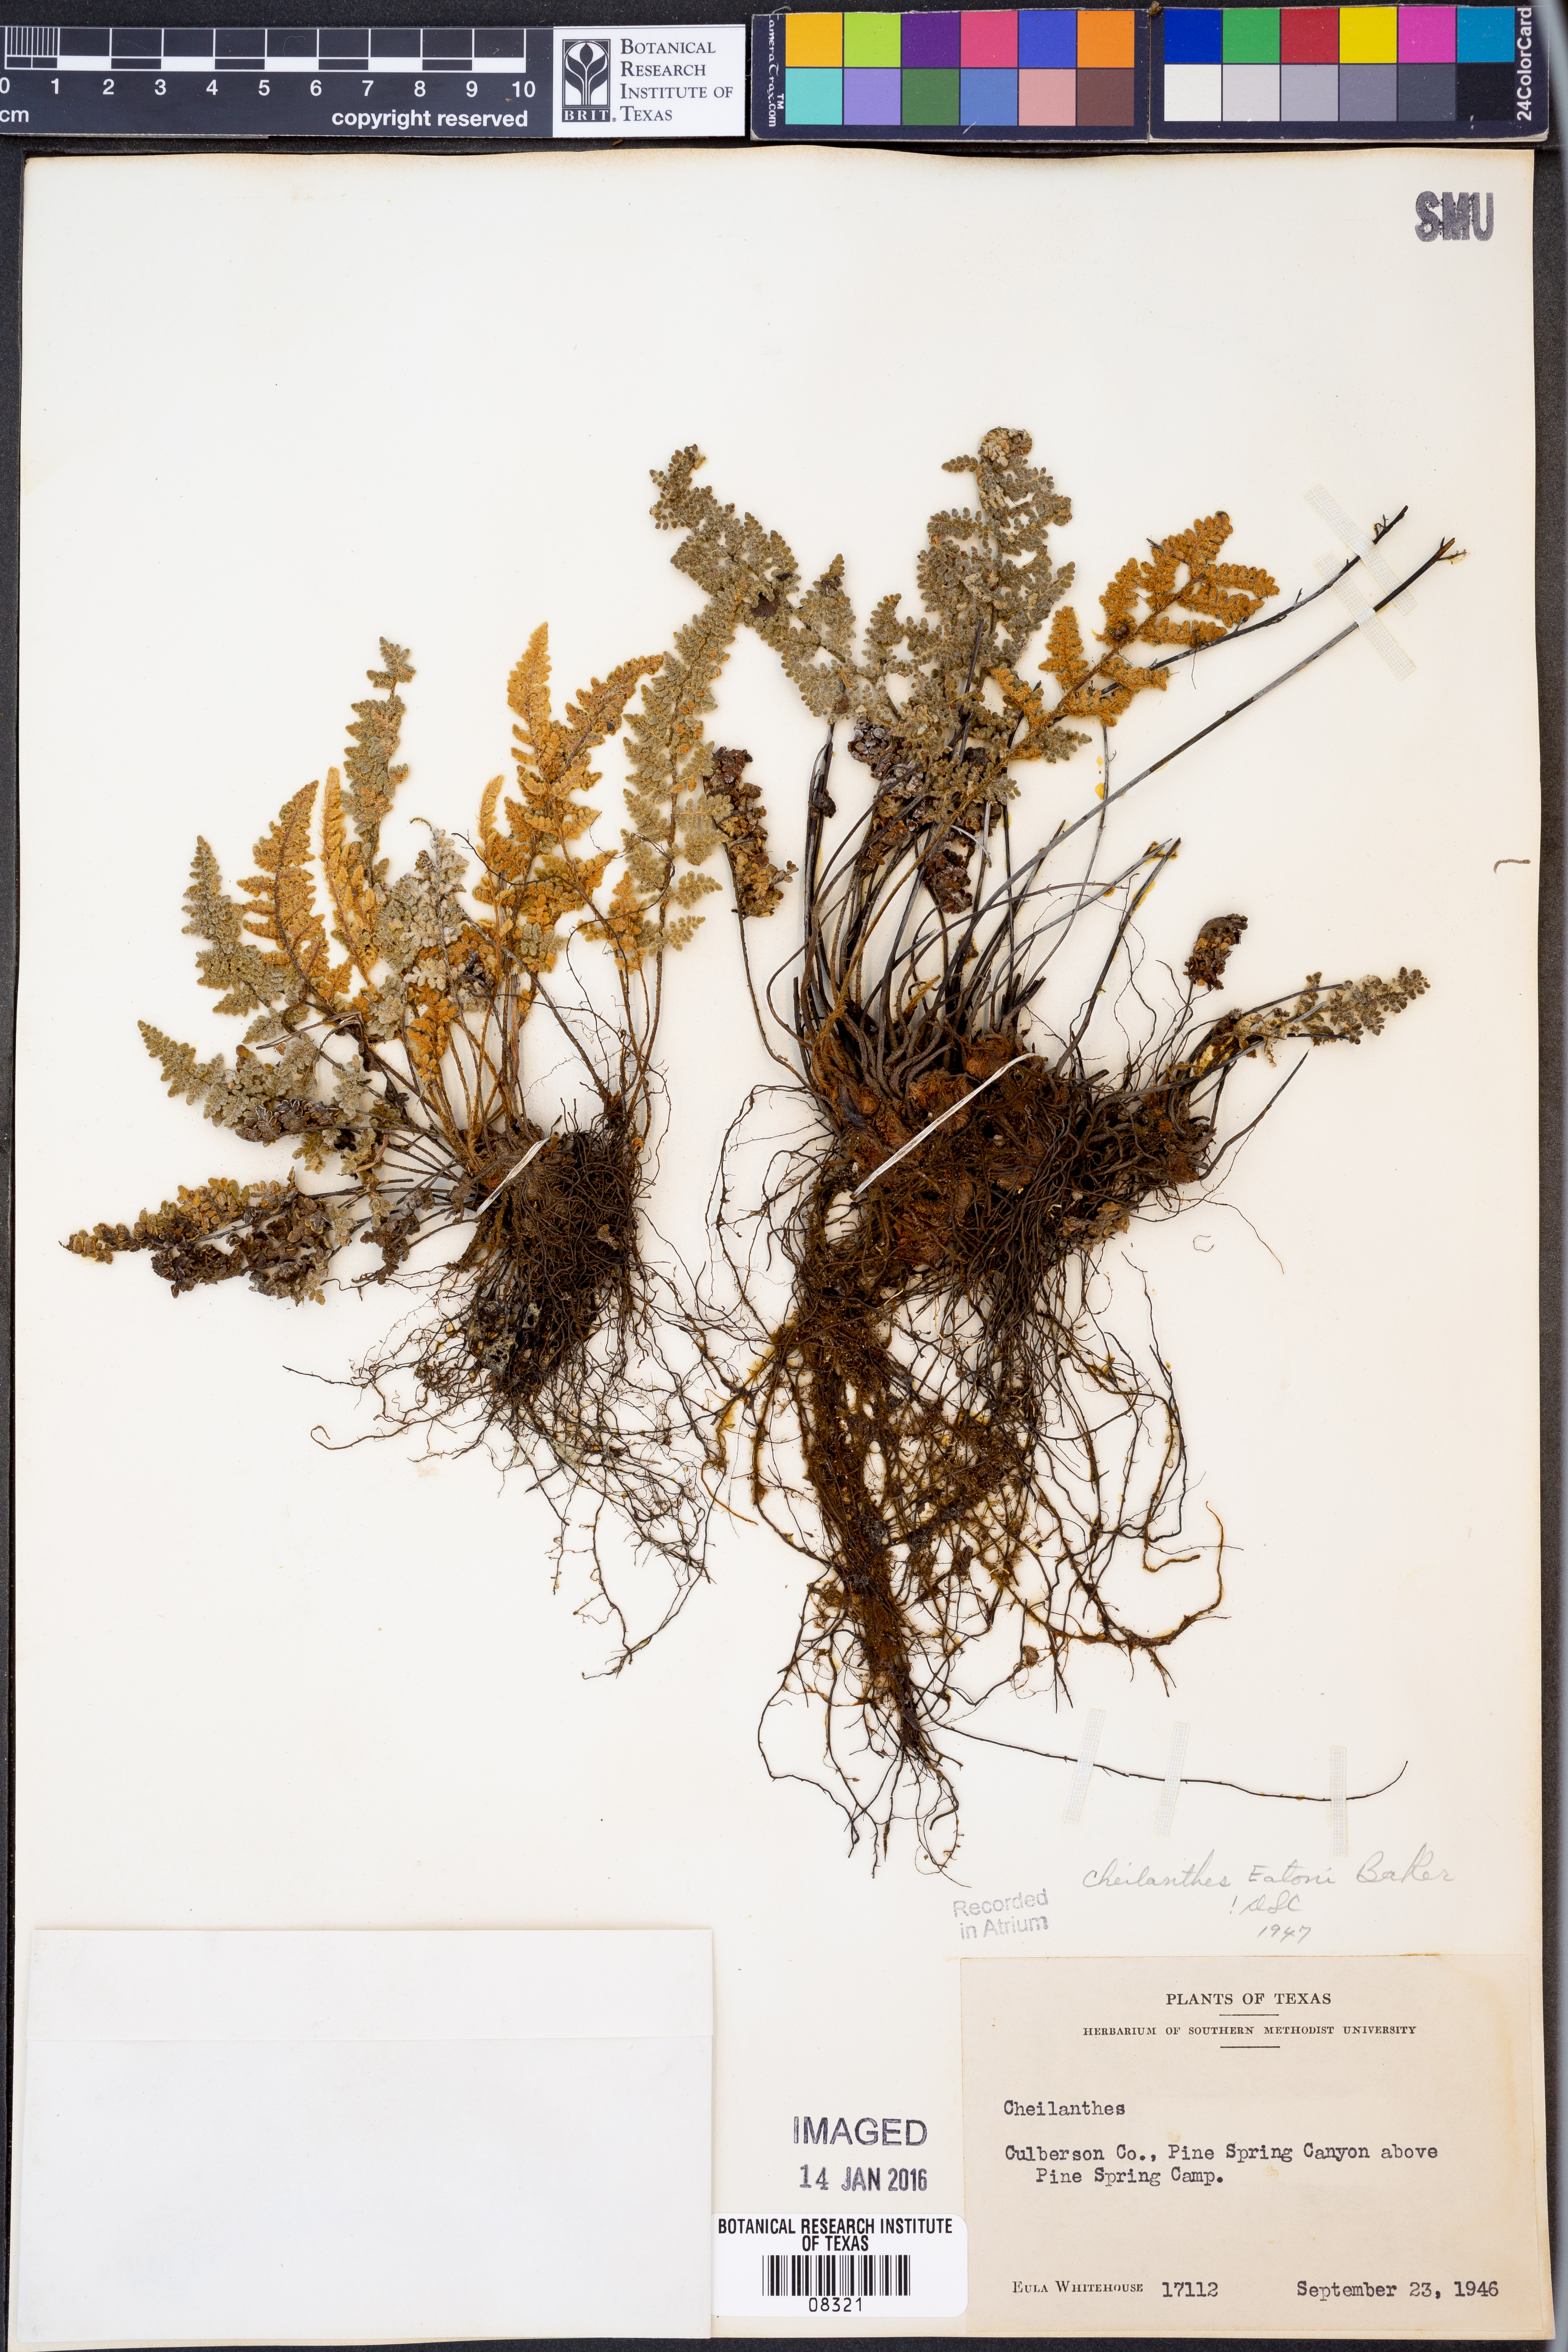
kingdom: Plantae
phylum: Tracheophyta
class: Polypodiopsida
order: Polypodiales
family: Pteridaceae
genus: Myriopteris
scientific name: Myriopteris rufa
